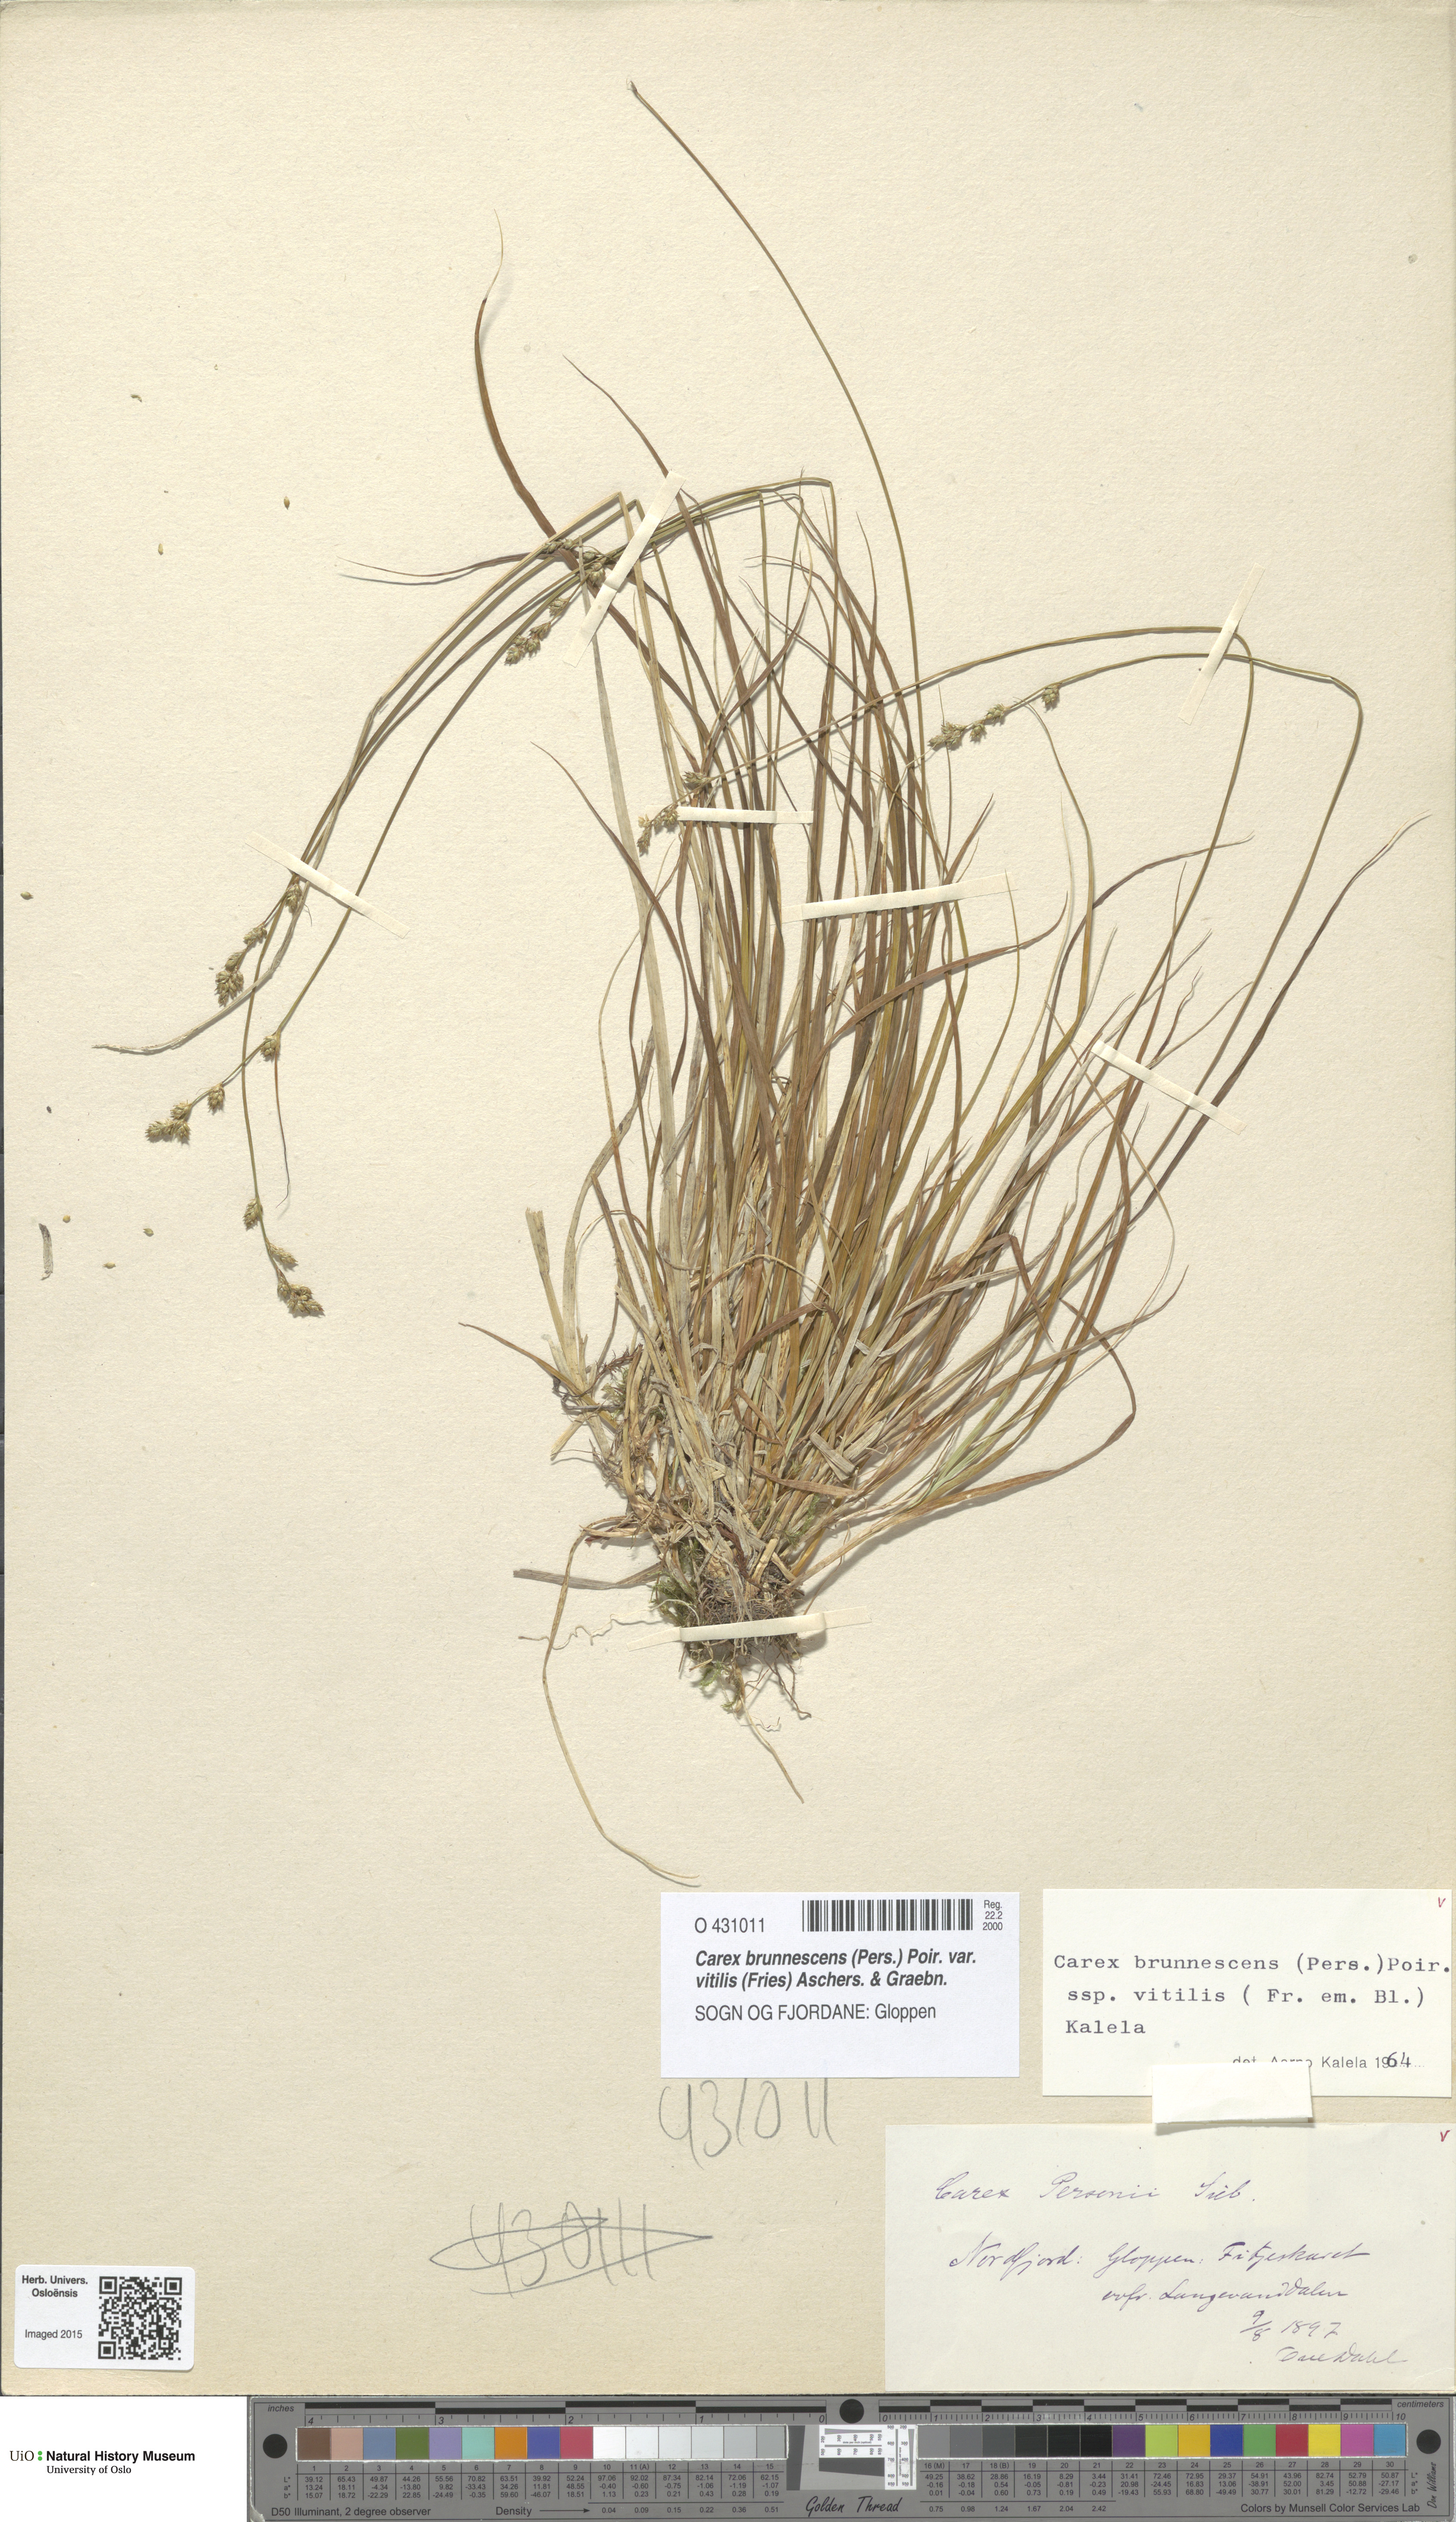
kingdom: Plantae
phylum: Tracheophyta
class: Liliopsida
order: Poales
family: Cyperaceae
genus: Carex
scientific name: Carex brunnescens
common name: Brown sedge
